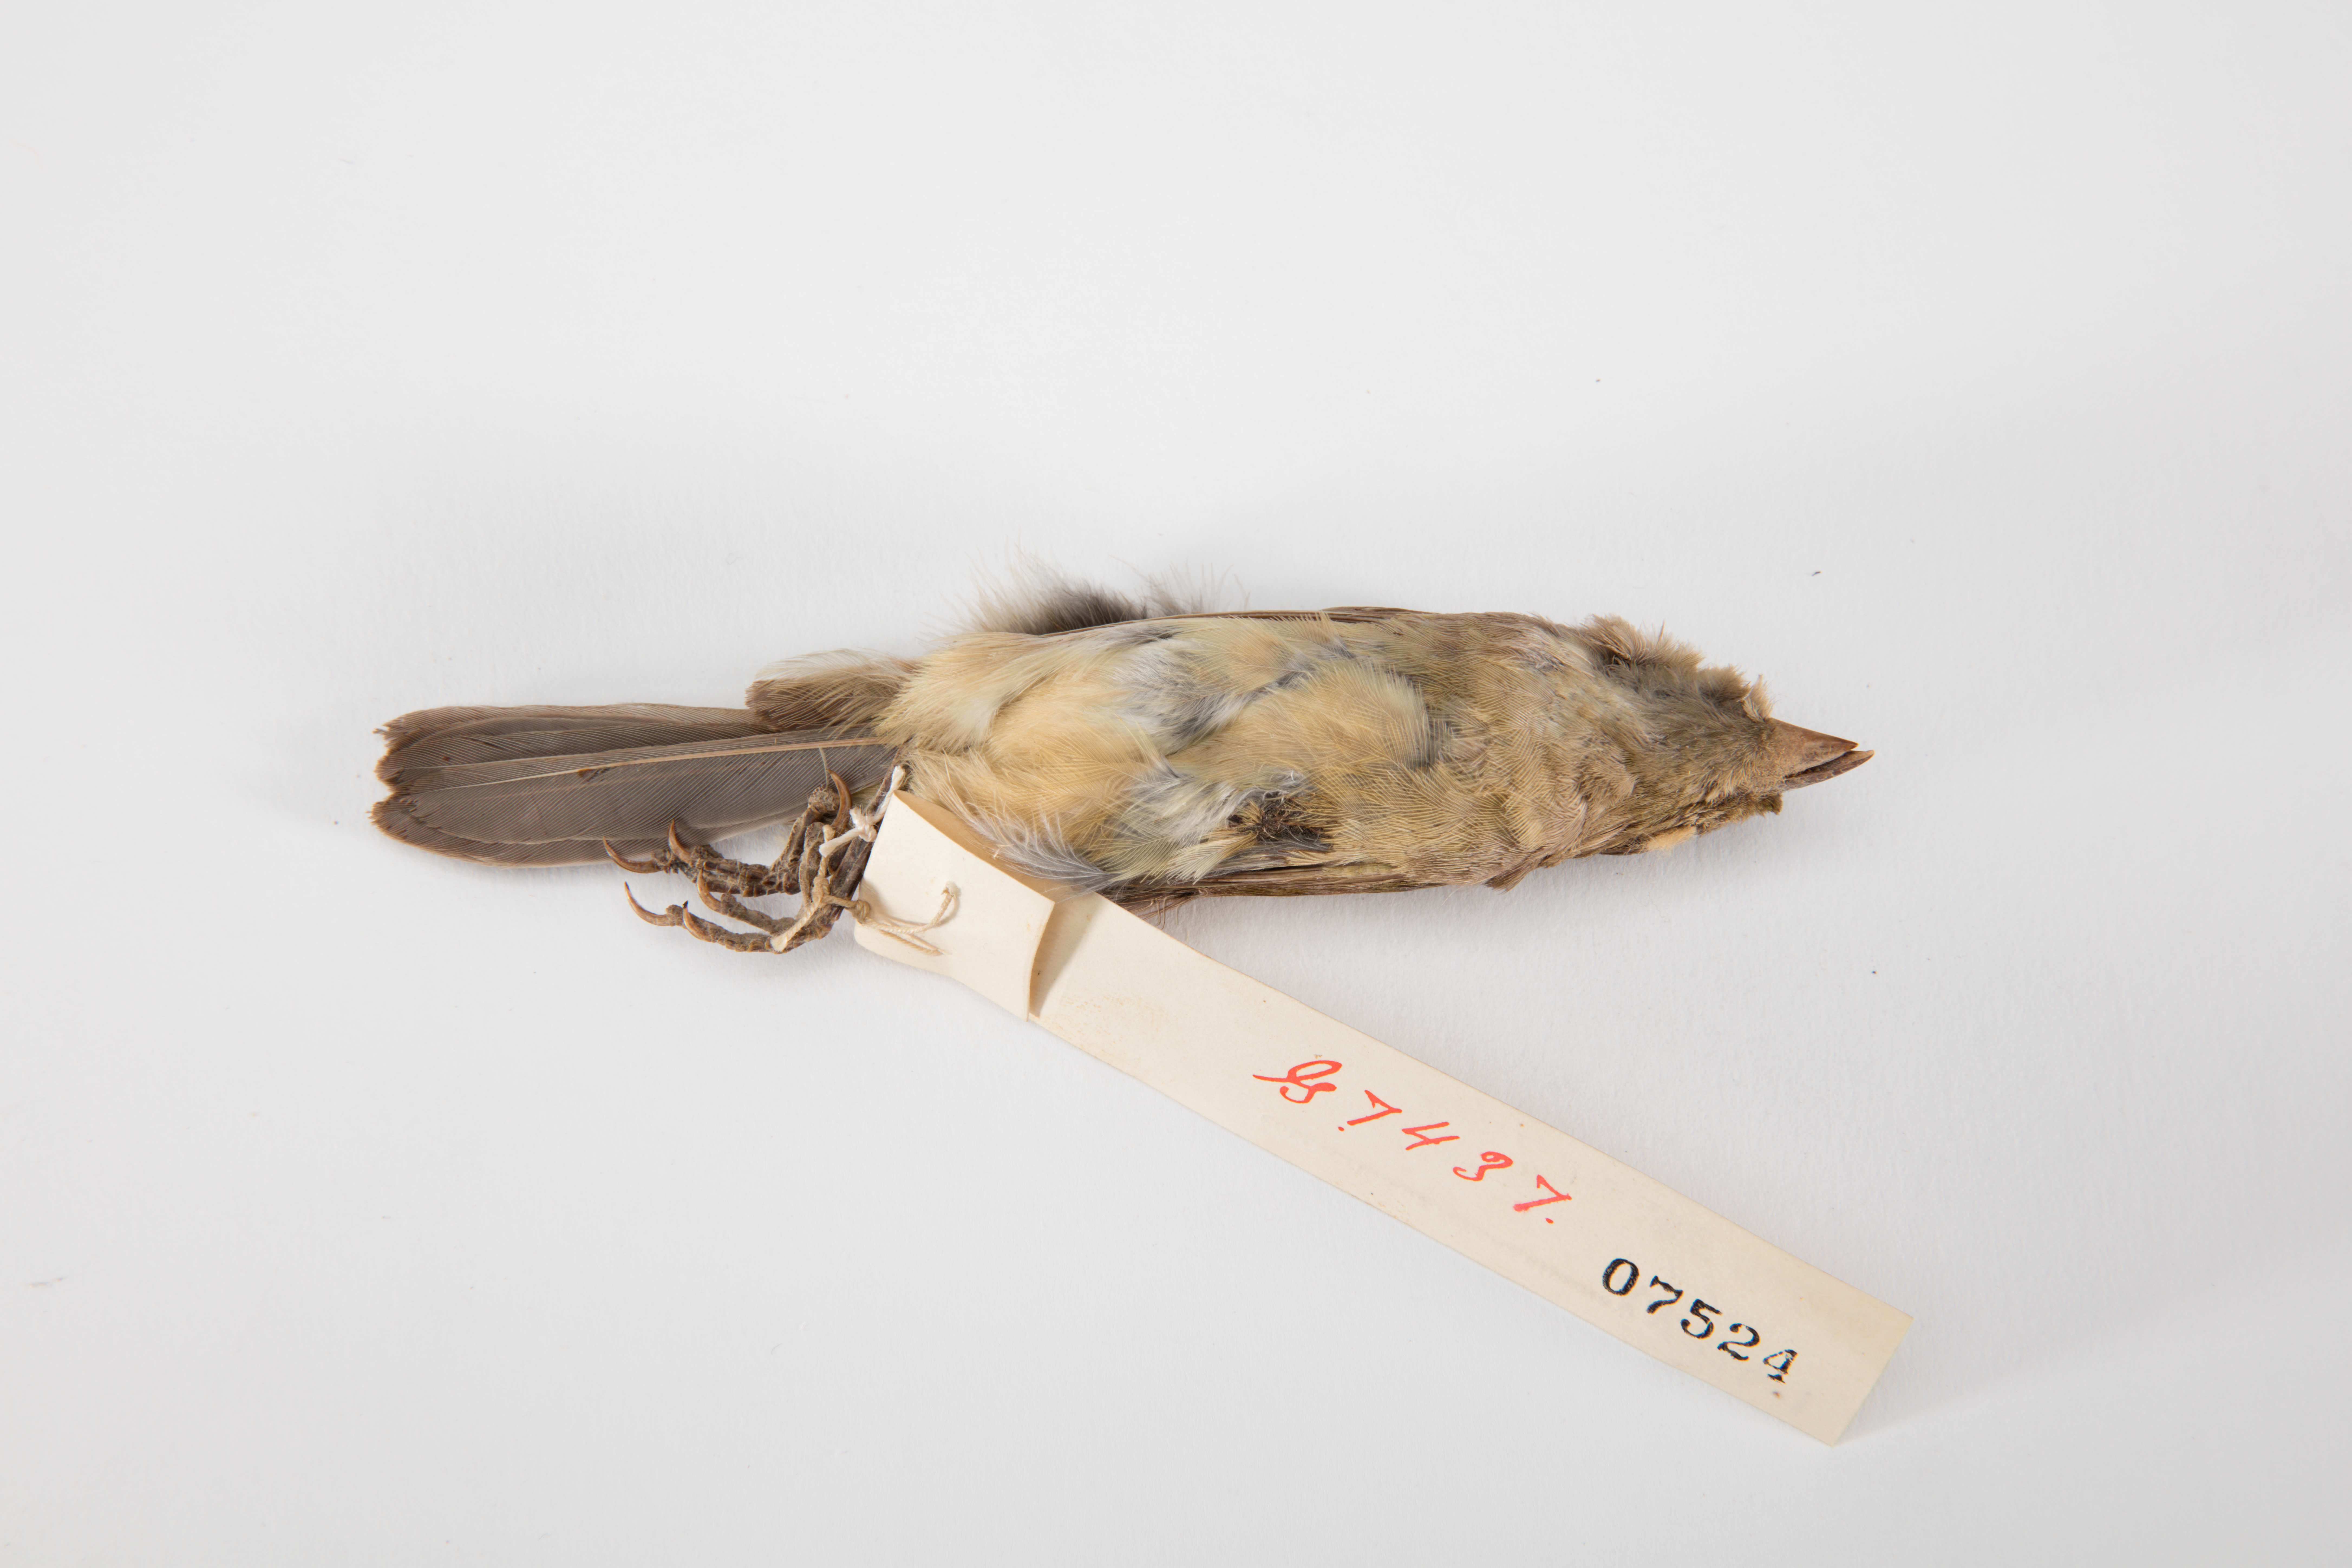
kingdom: Animalia
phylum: Chordata
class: Aves
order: Passeriformes
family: Cardinalidae
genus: Passerina
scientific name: Passerina ciris
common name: Painted bunting
